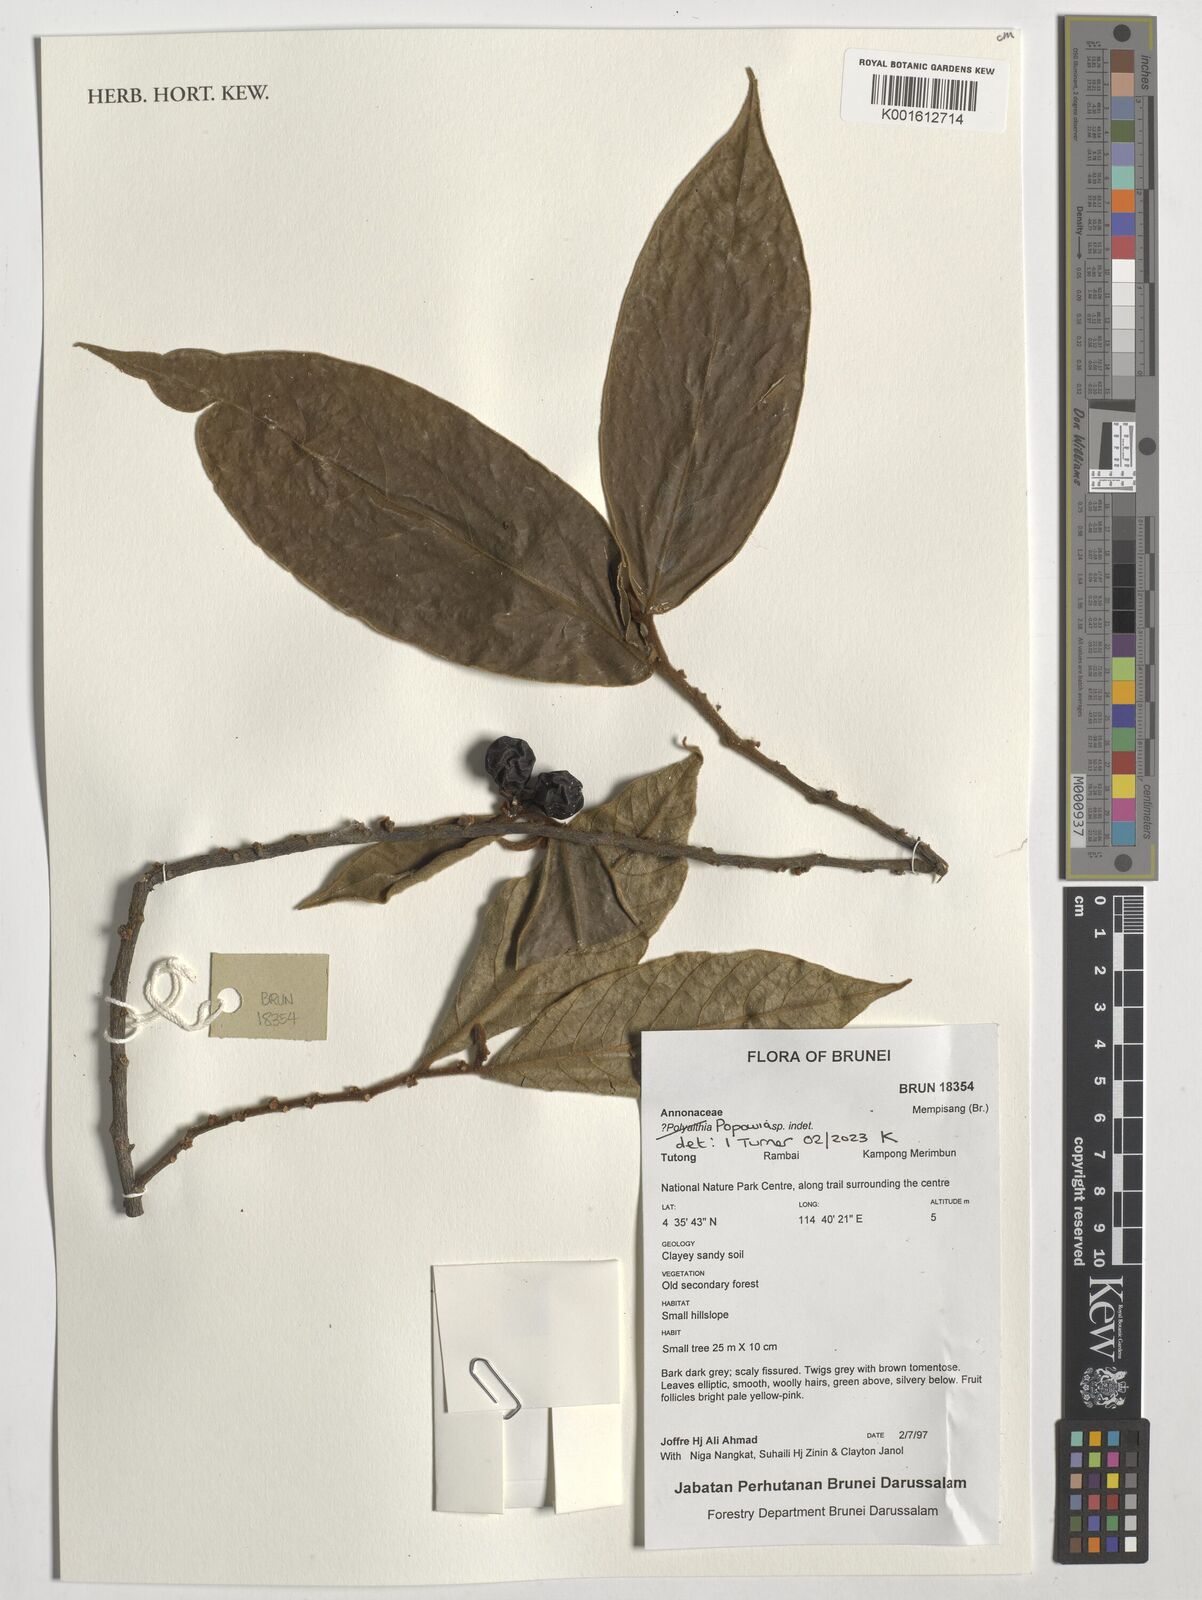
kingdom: Plantae
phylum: Tracheophyta
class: Magnoliopsida
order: Magnoliales
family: Annonaceae
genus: Popowia
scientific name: Popowia
